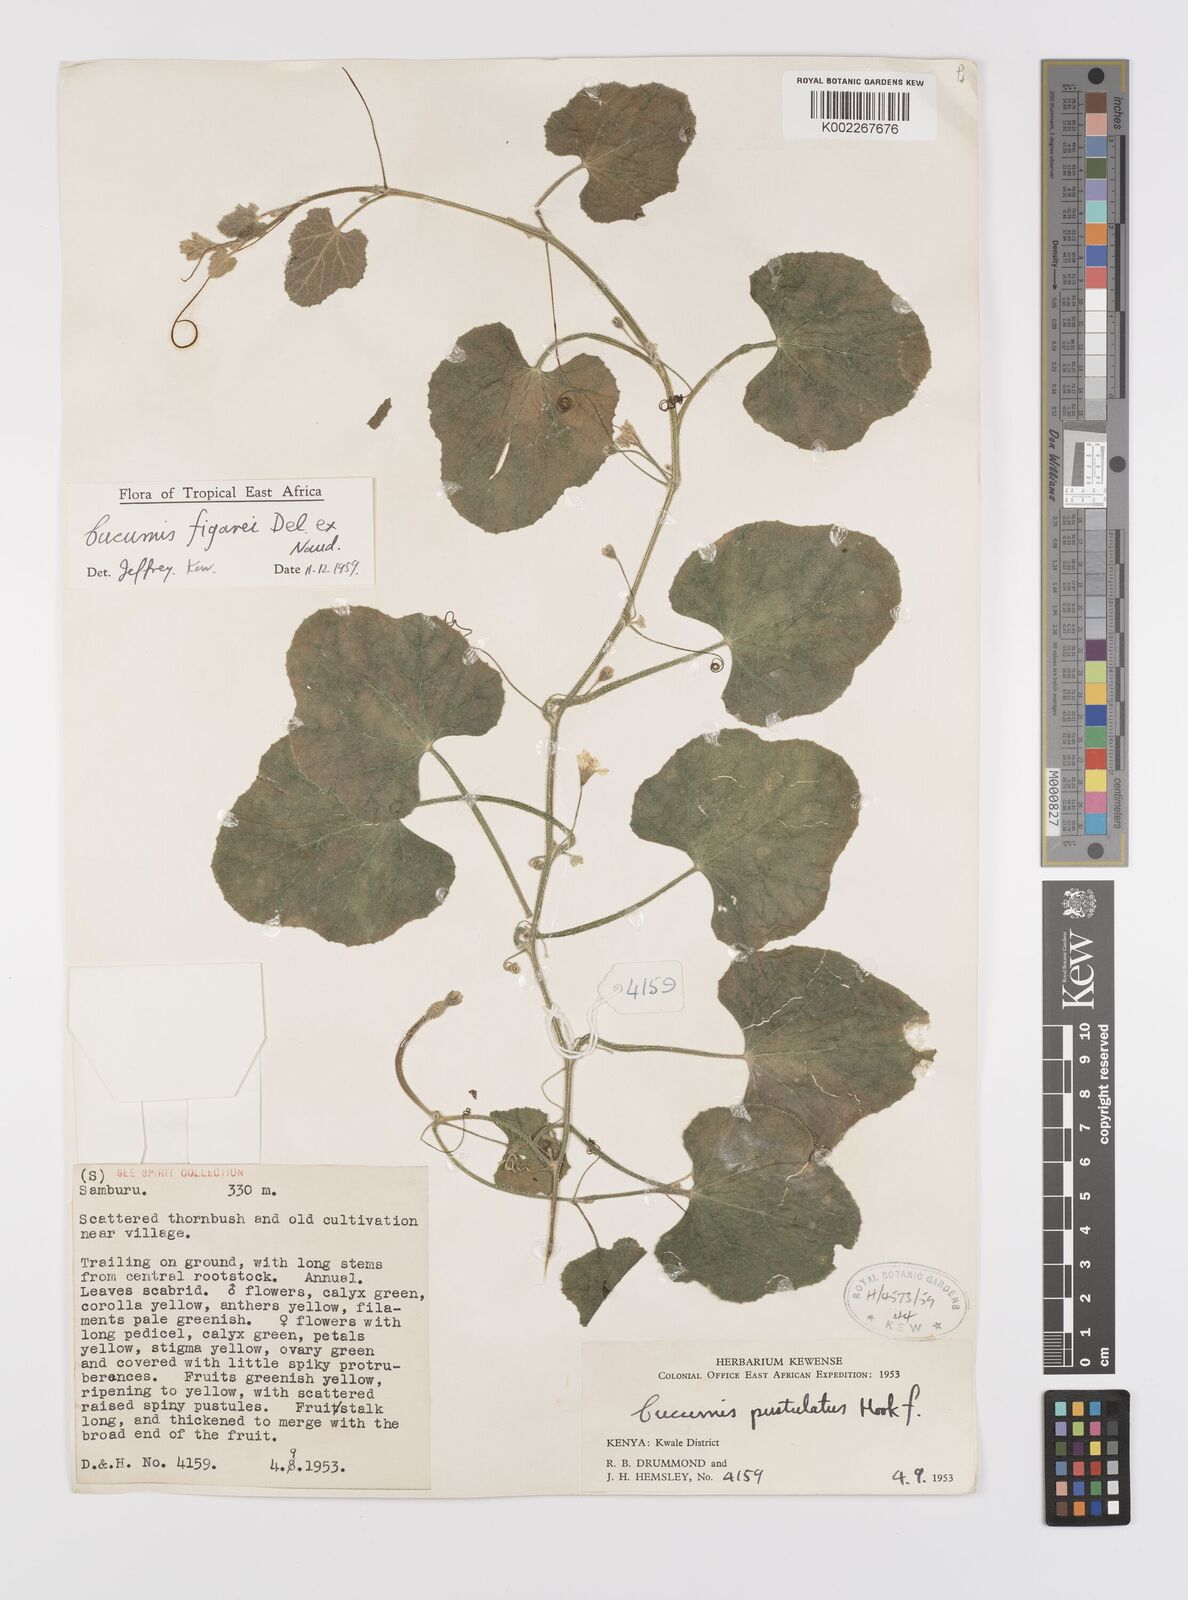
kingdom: Plantae
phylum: Tracheophyta
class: Magnoliopsida
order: Cucurbitales
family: Cucurbitaceae
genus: Cucumis
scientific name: Cucumis
